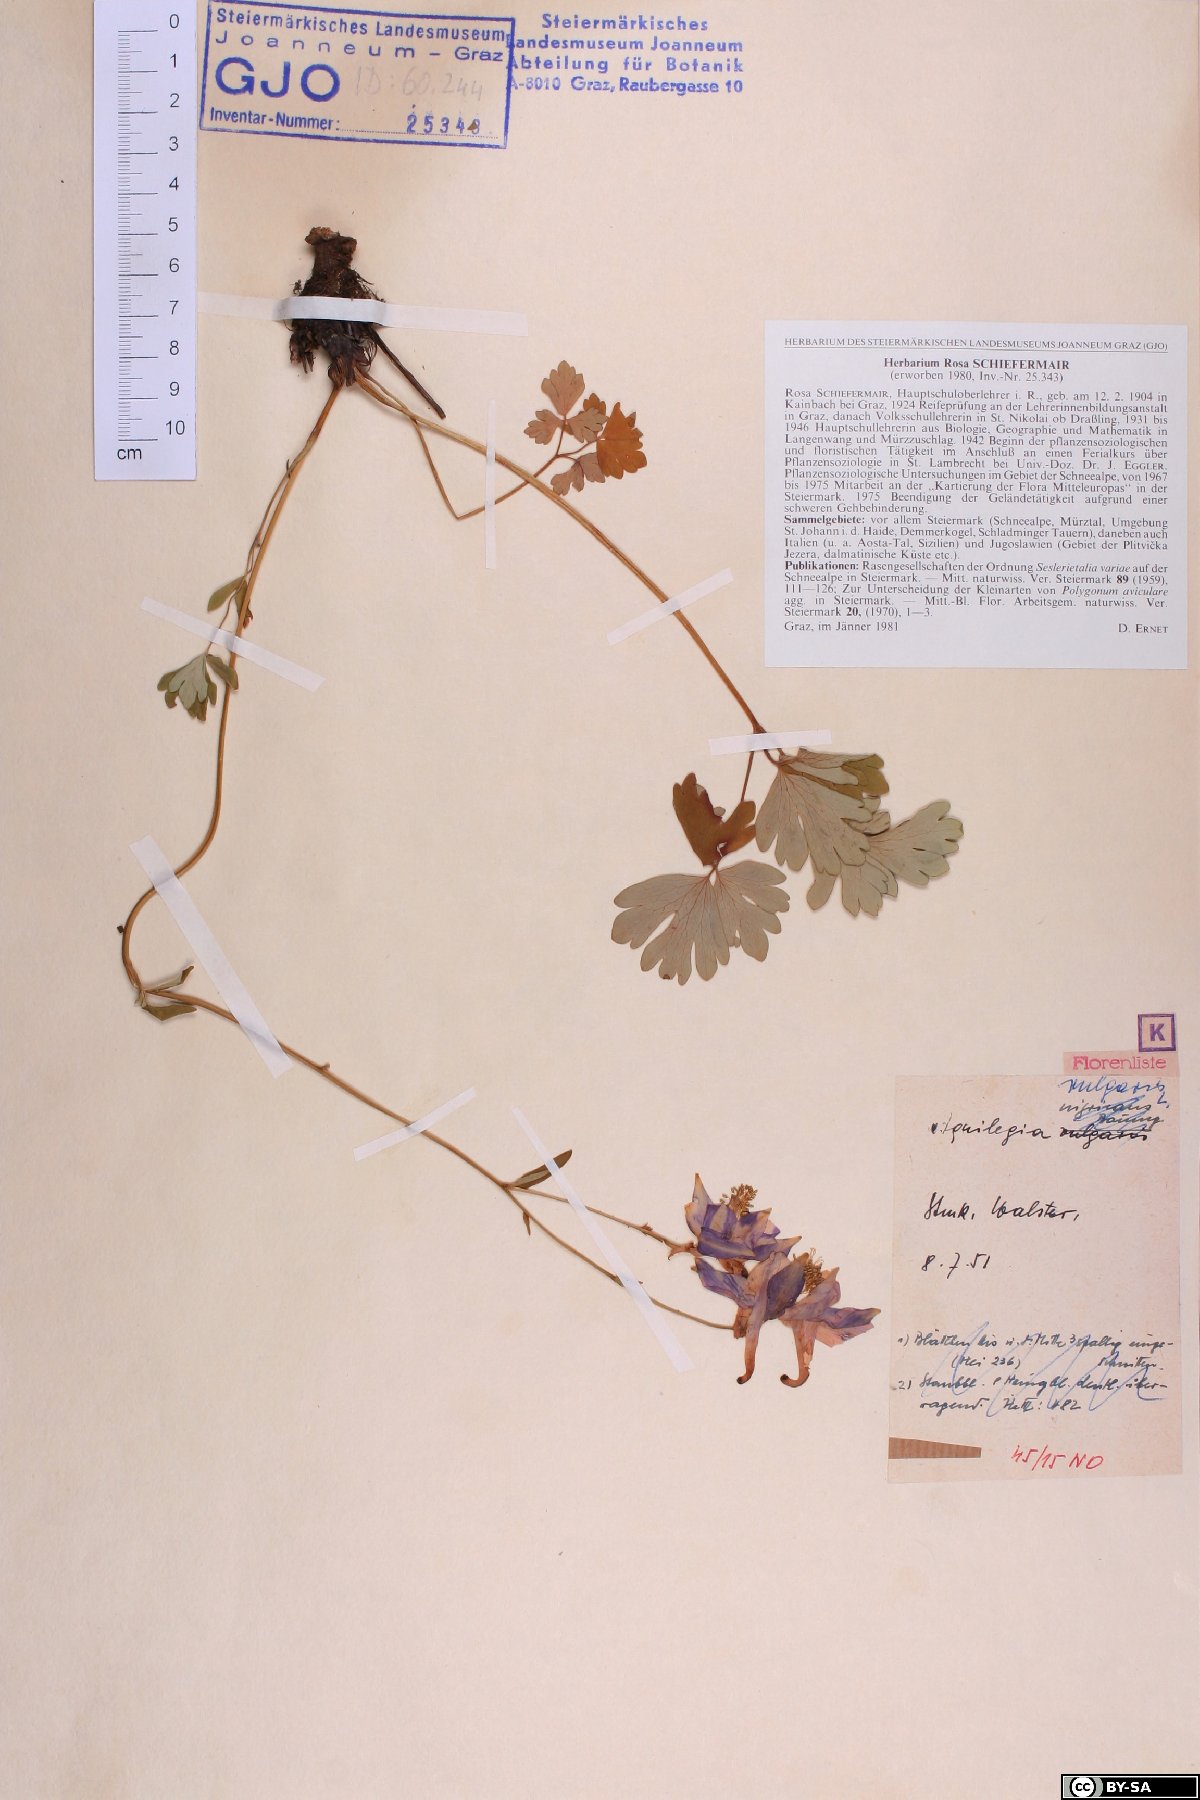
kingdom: Plantae
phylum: Tracheophyta
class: Magnoliopsida
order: Ranunculales
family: Ranunculaceae
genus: Aquilegia
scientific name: Aquilegia vulgaris
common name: Columbine
